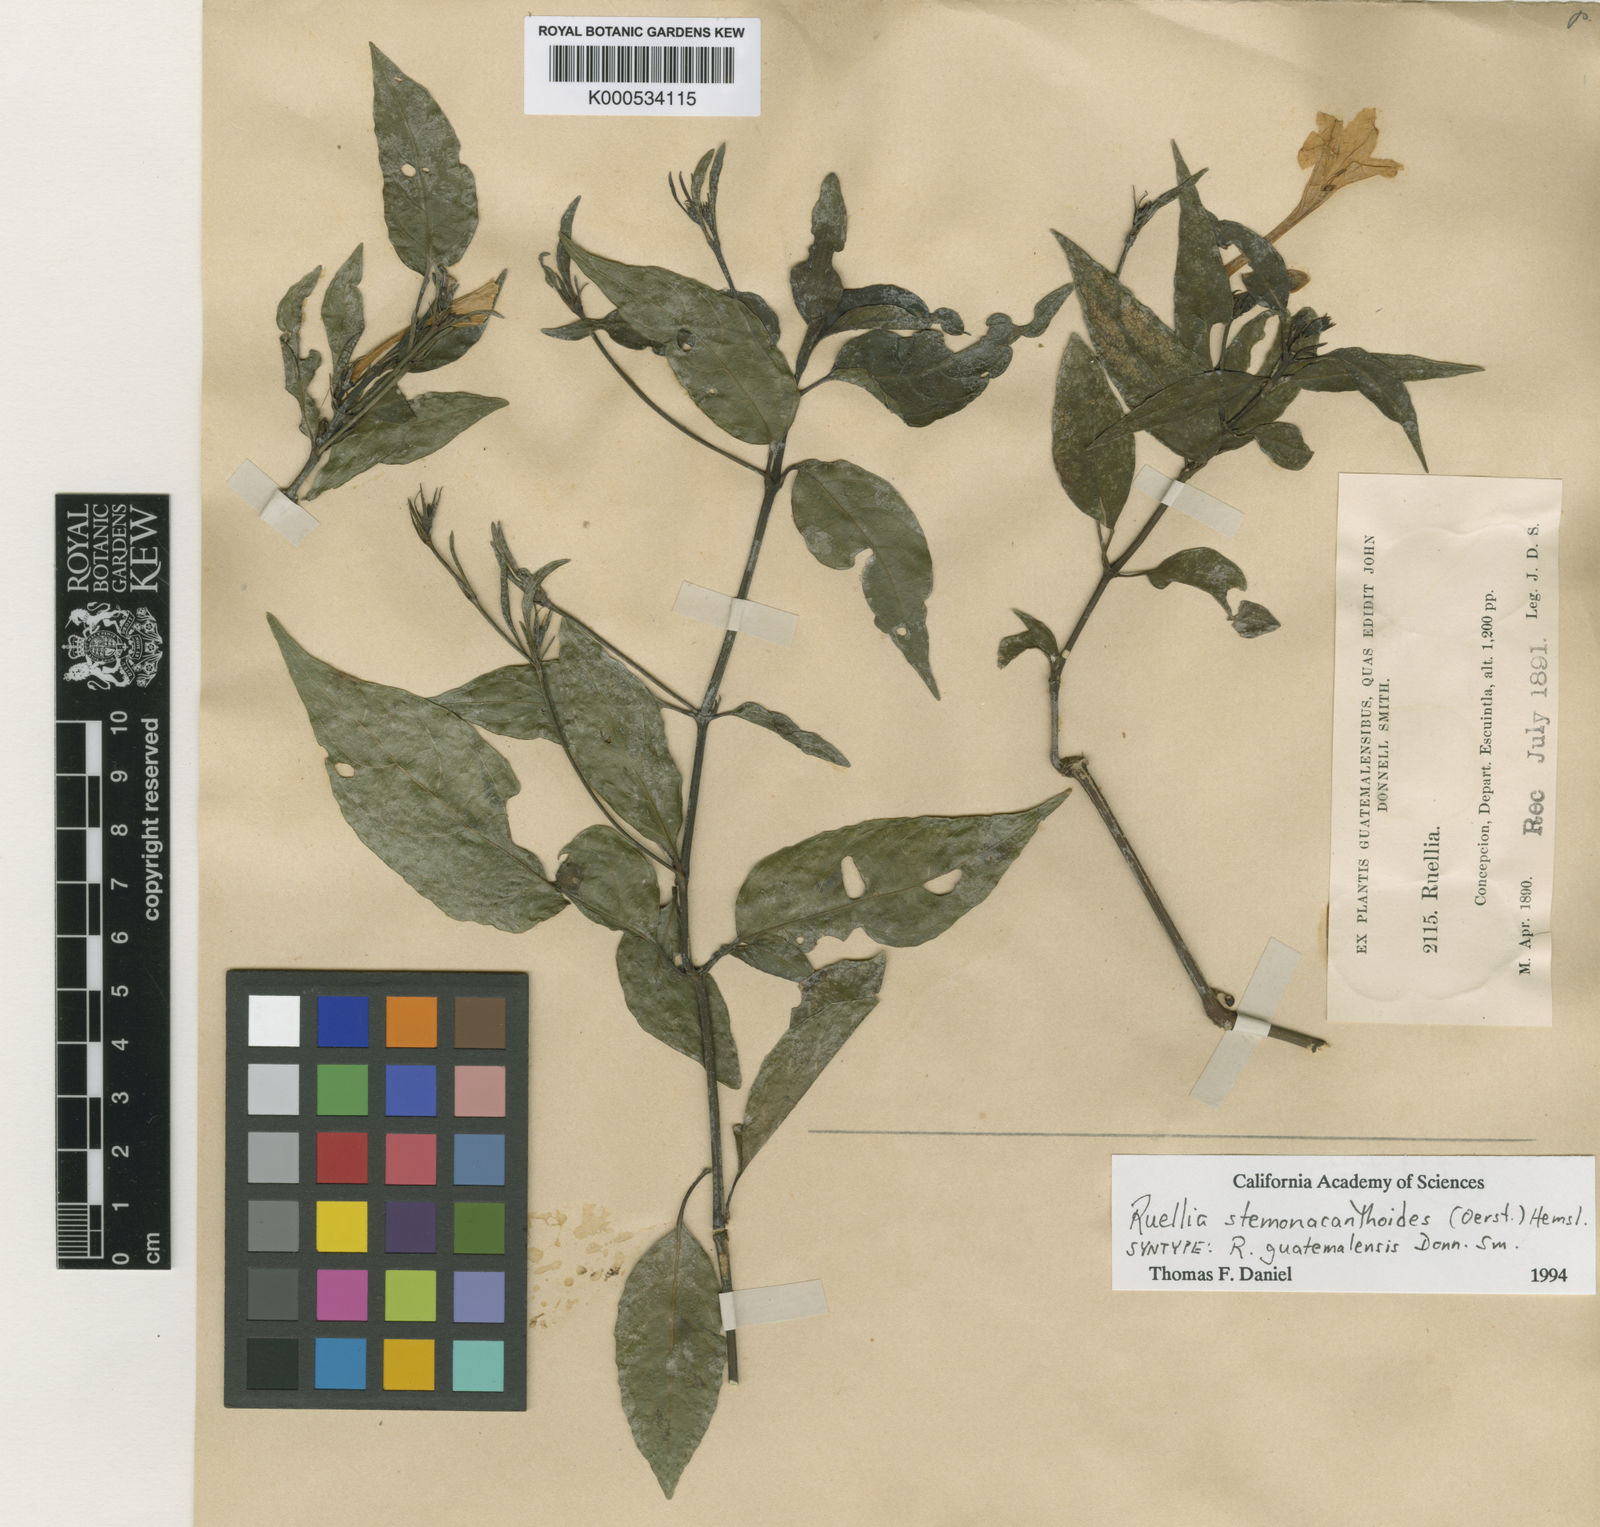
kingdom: Plantae
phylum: Tracheophyta
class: Magnoliopsida
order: Lamiales
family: Acanthaceae
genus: Ruellia
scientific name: Ruellia stemonacanthoides
